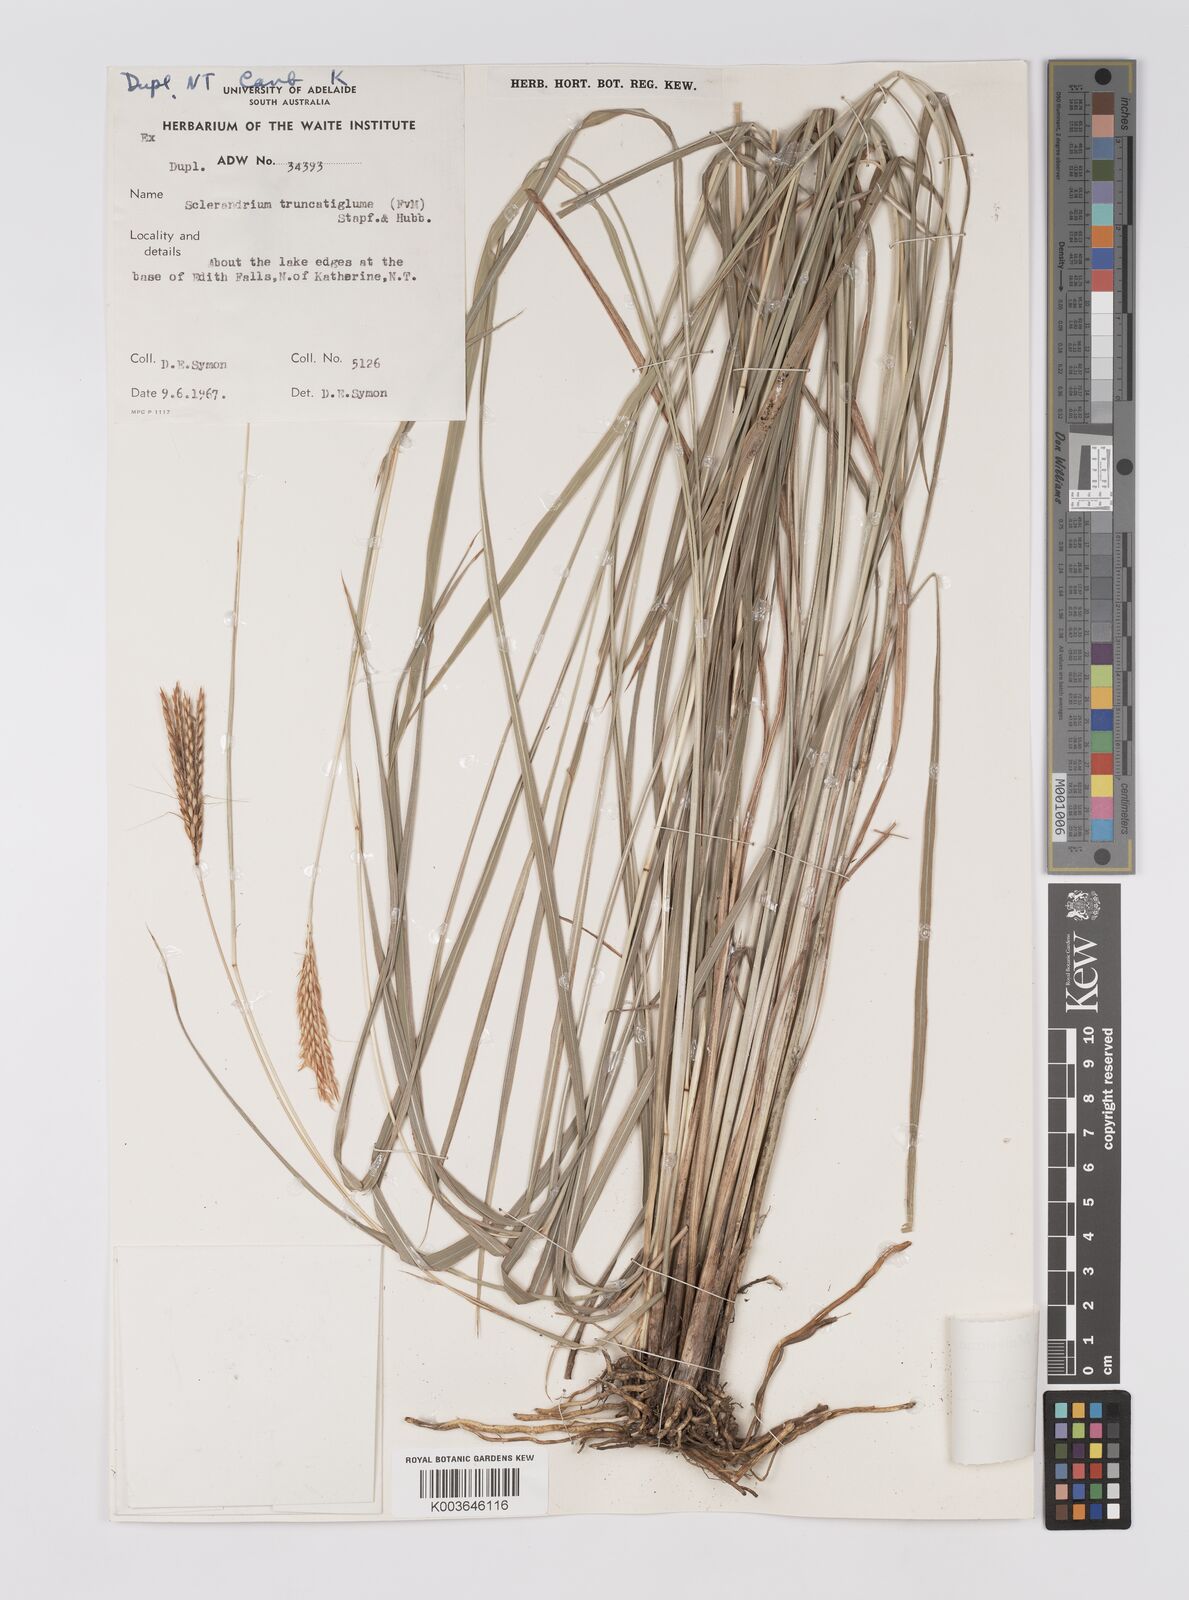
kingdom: Plantae
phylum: Tracheophyta
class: Liliopsida
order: Poales
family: Poaceae
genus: Germainia
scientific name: Germainia truncatiglumis
